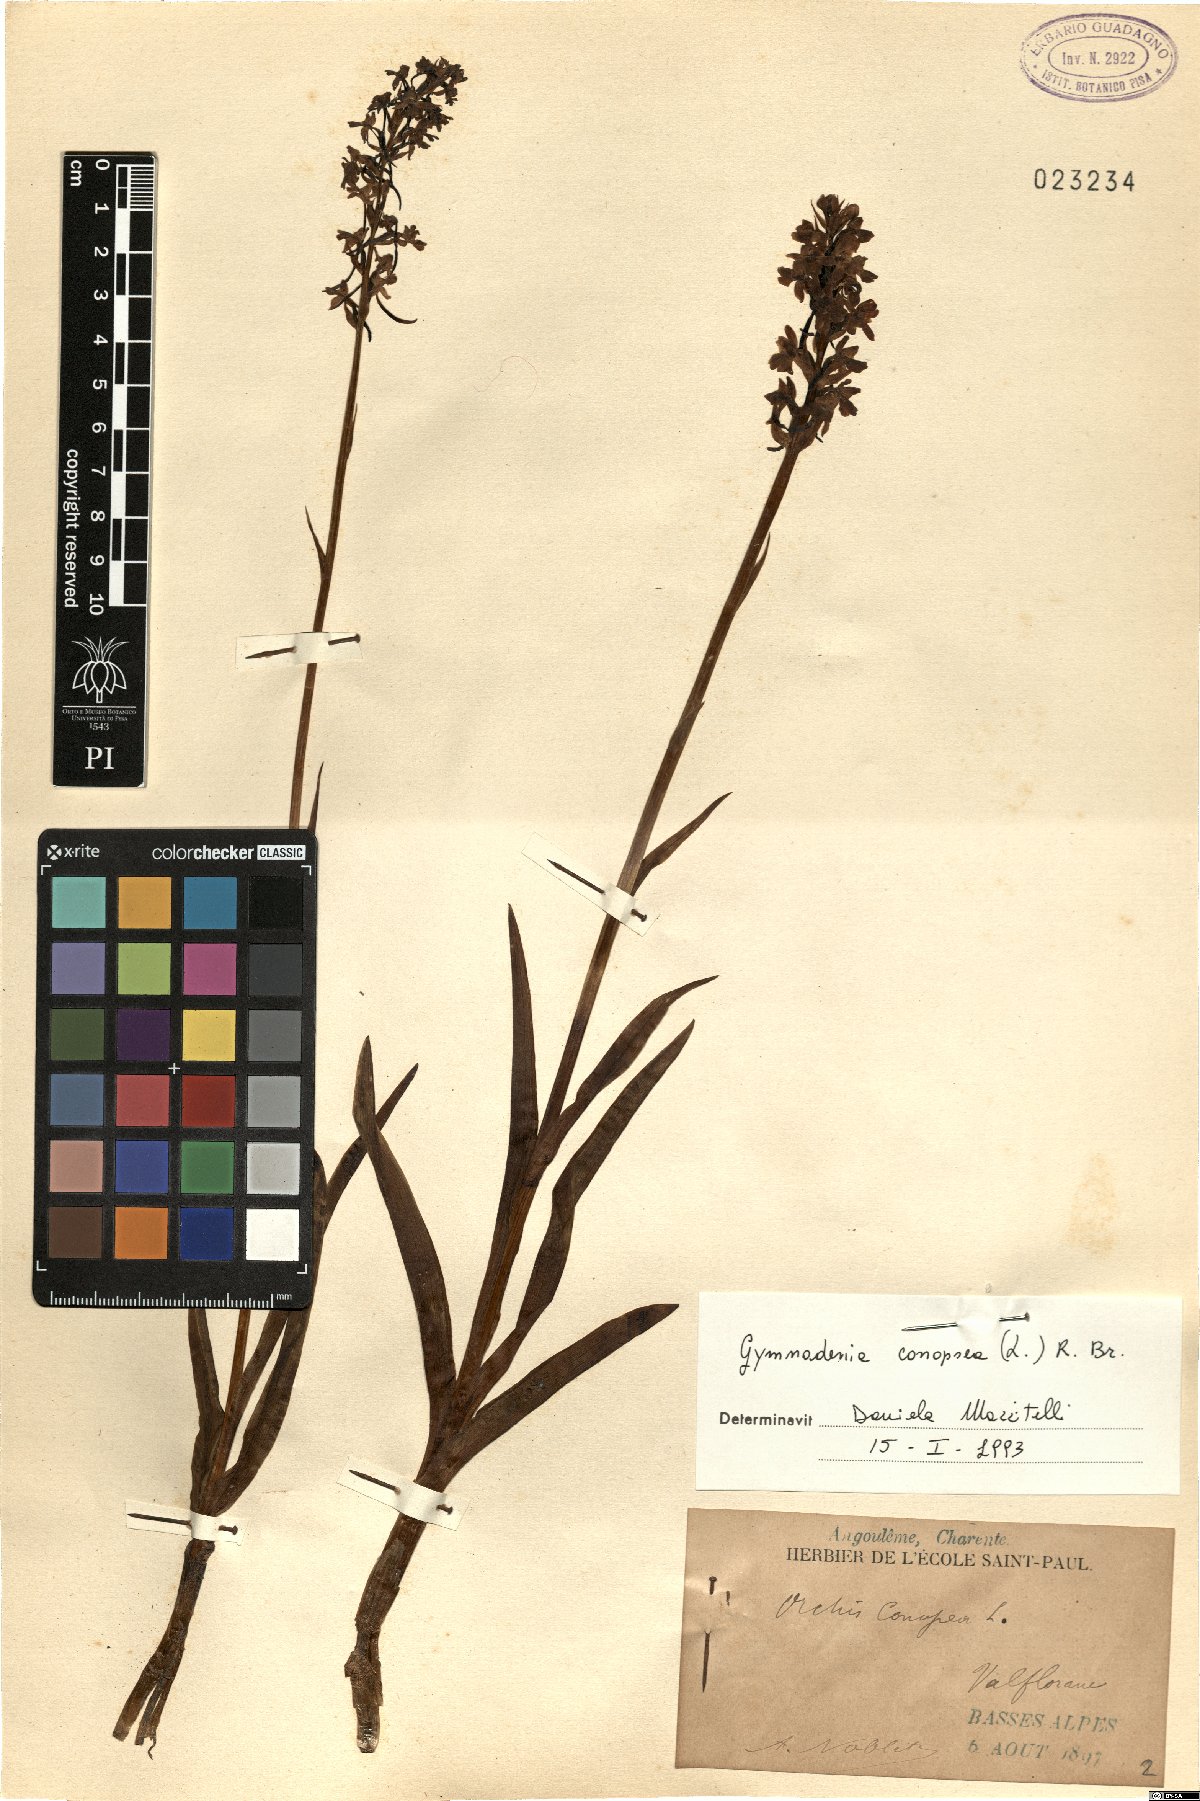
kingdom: Plantae
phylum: Tracheophyta
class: Liliopsida
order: Asparagales
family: Orchidaceae
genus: Gymnadenia
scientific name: Gymnadenia conopsea
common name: Fragrant orchid
